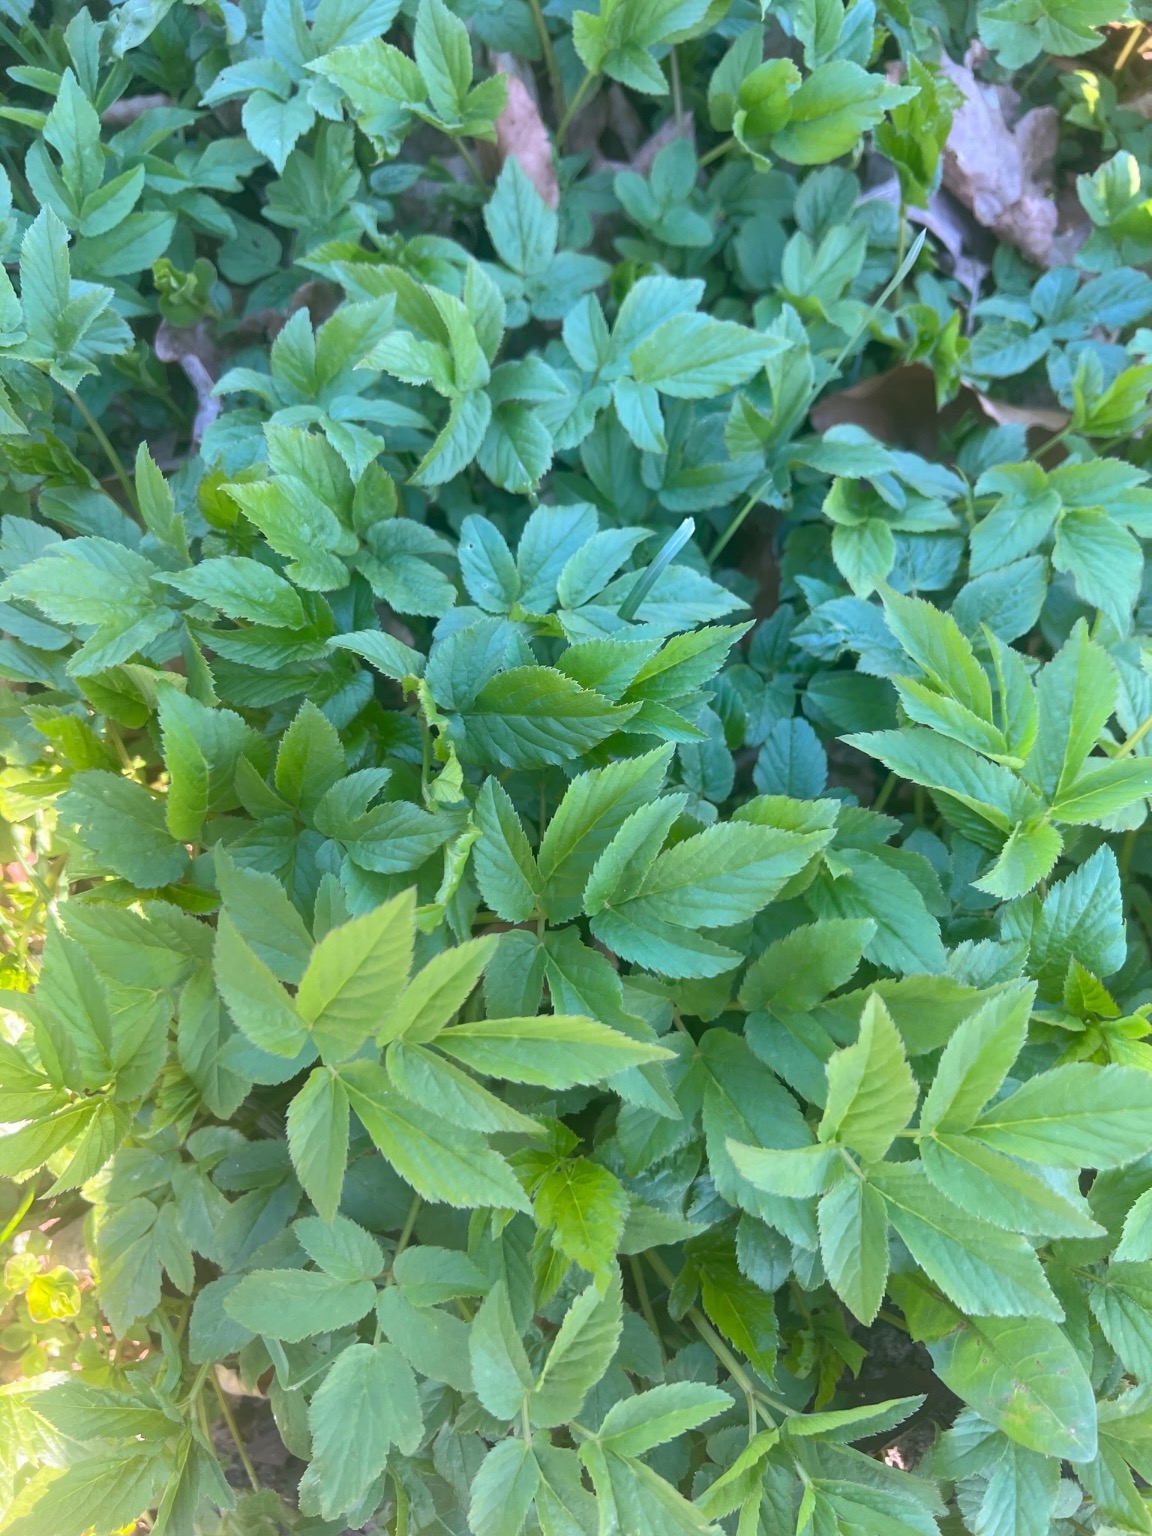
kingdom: Plantae
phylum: Tracheophyta
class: Magnoliopsida
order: Apiales
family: Apiaceae
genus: Aegopodium
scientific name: Aegopodium podagraria
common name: Skvalderkål
